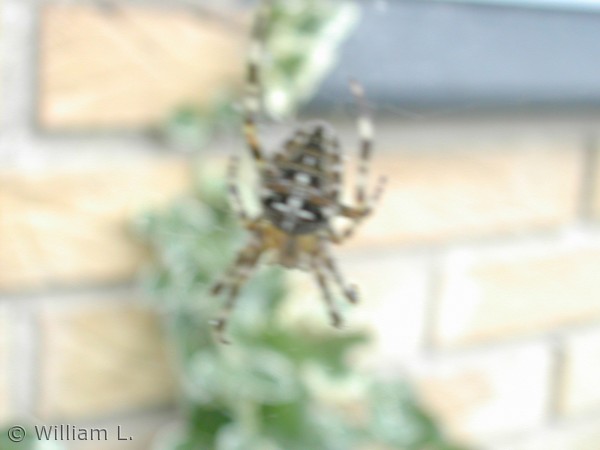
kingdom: Animalia
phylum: Arthropoda
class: Arachnida
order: Araneae
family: Araneidae
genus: Araneus
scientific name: Araneus diadematus
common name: Korsedderkop
